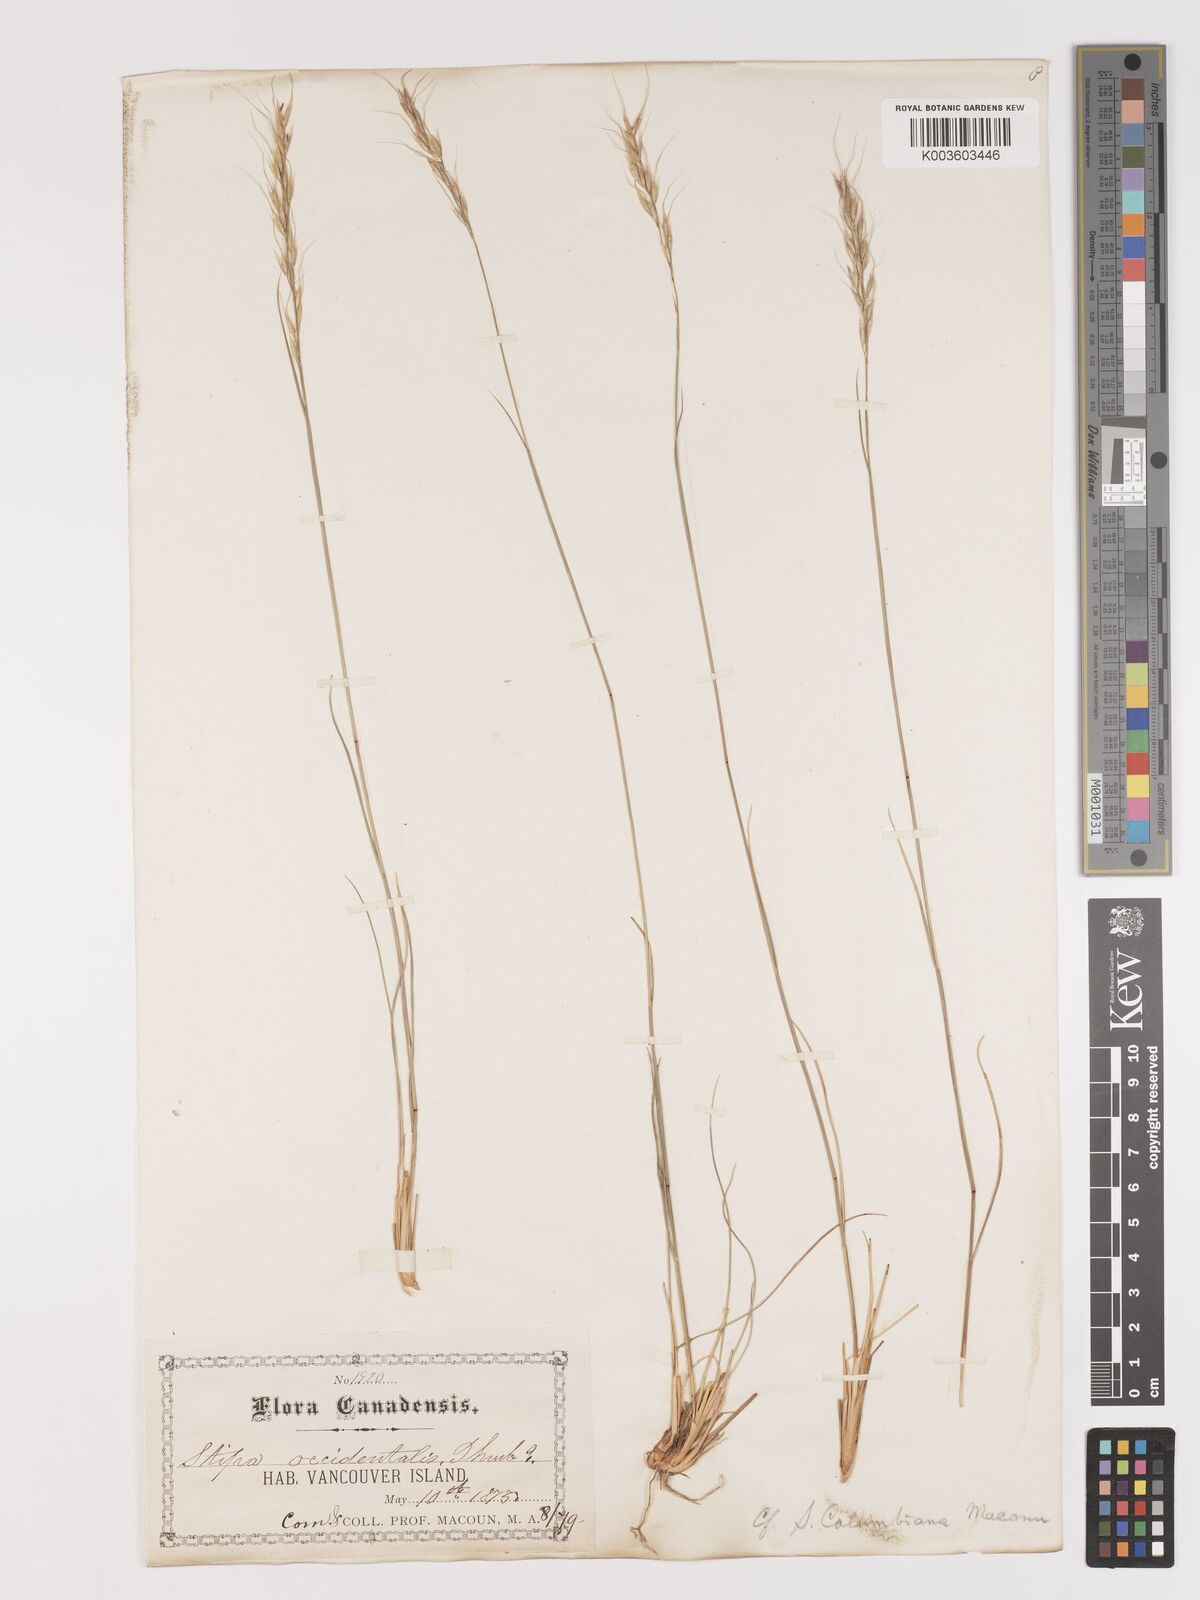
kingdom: Plantae
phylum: Tracheophyta
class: Liliopsida
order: Poales
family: Poaceae
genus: Eriocoma
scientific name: Eriocoma nelsonii
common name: Nelson's needlegrass
